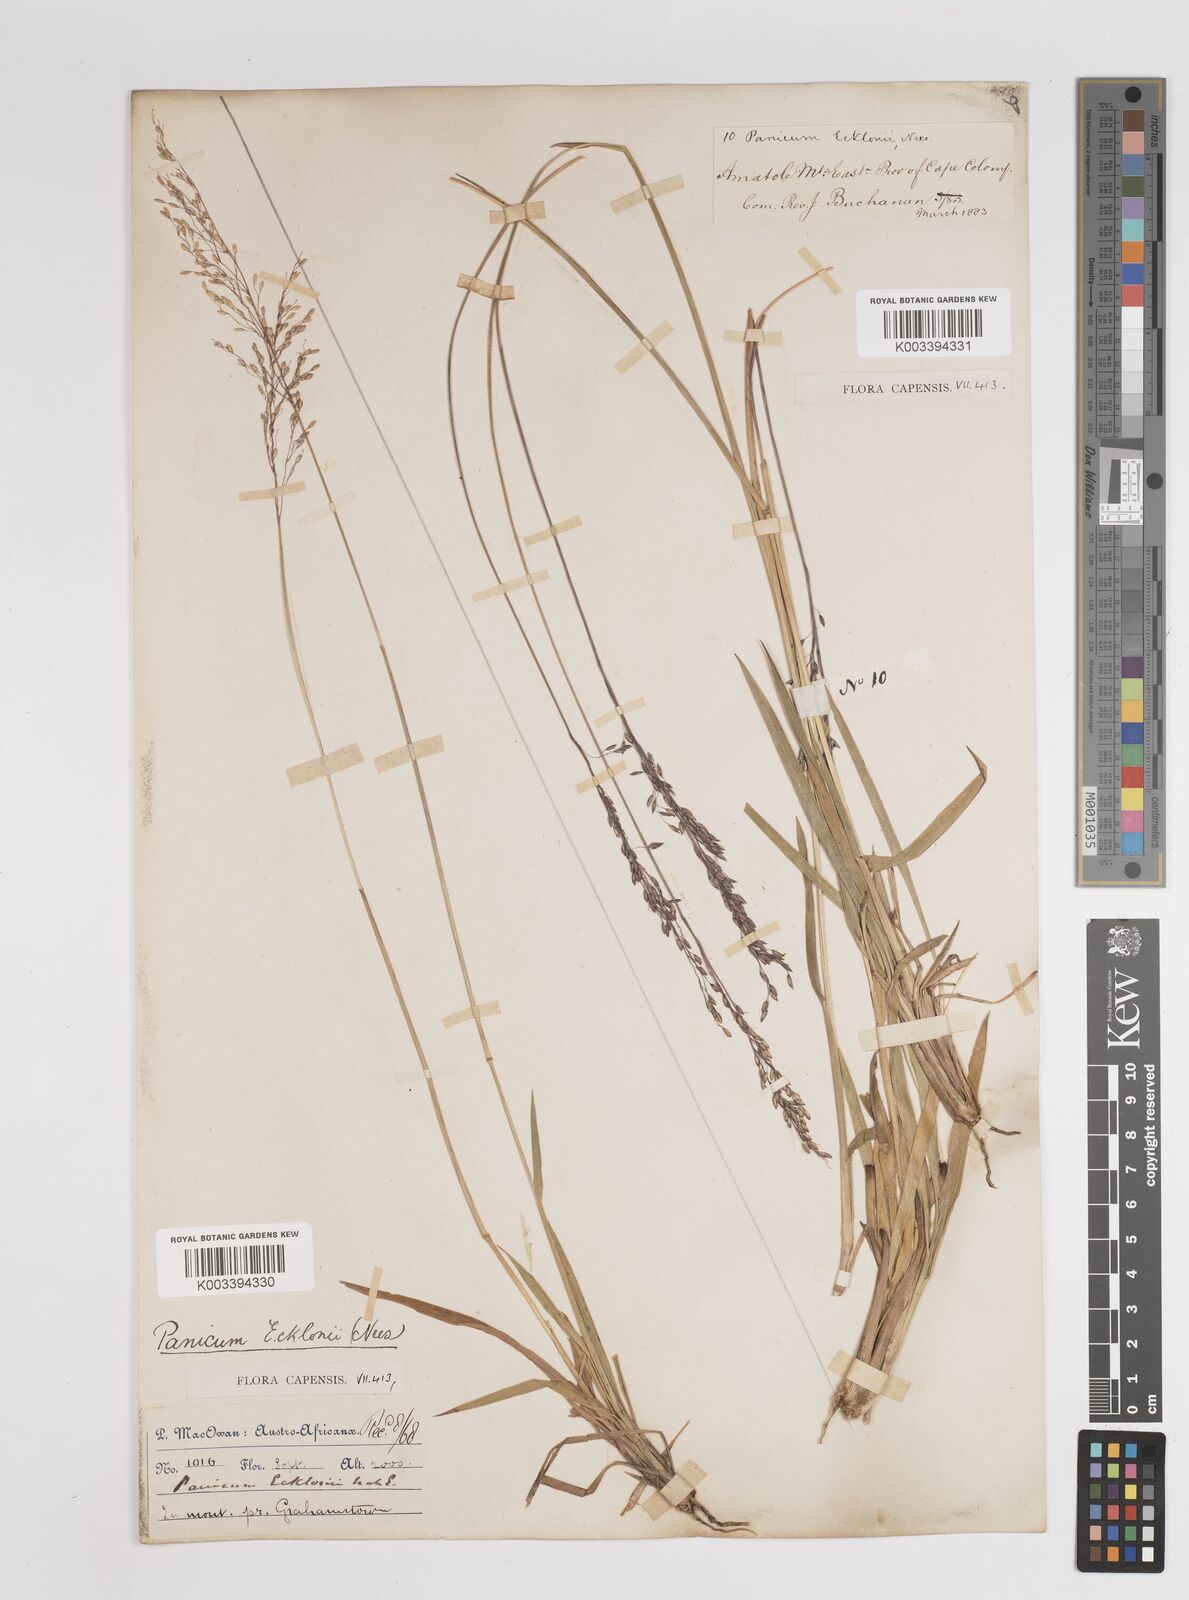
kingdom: Plantae
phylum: Tracheophyta
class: Liliopsida
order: Poales
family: Poaceae
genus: Adenochloa
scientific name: Adenochloa ecklonii
